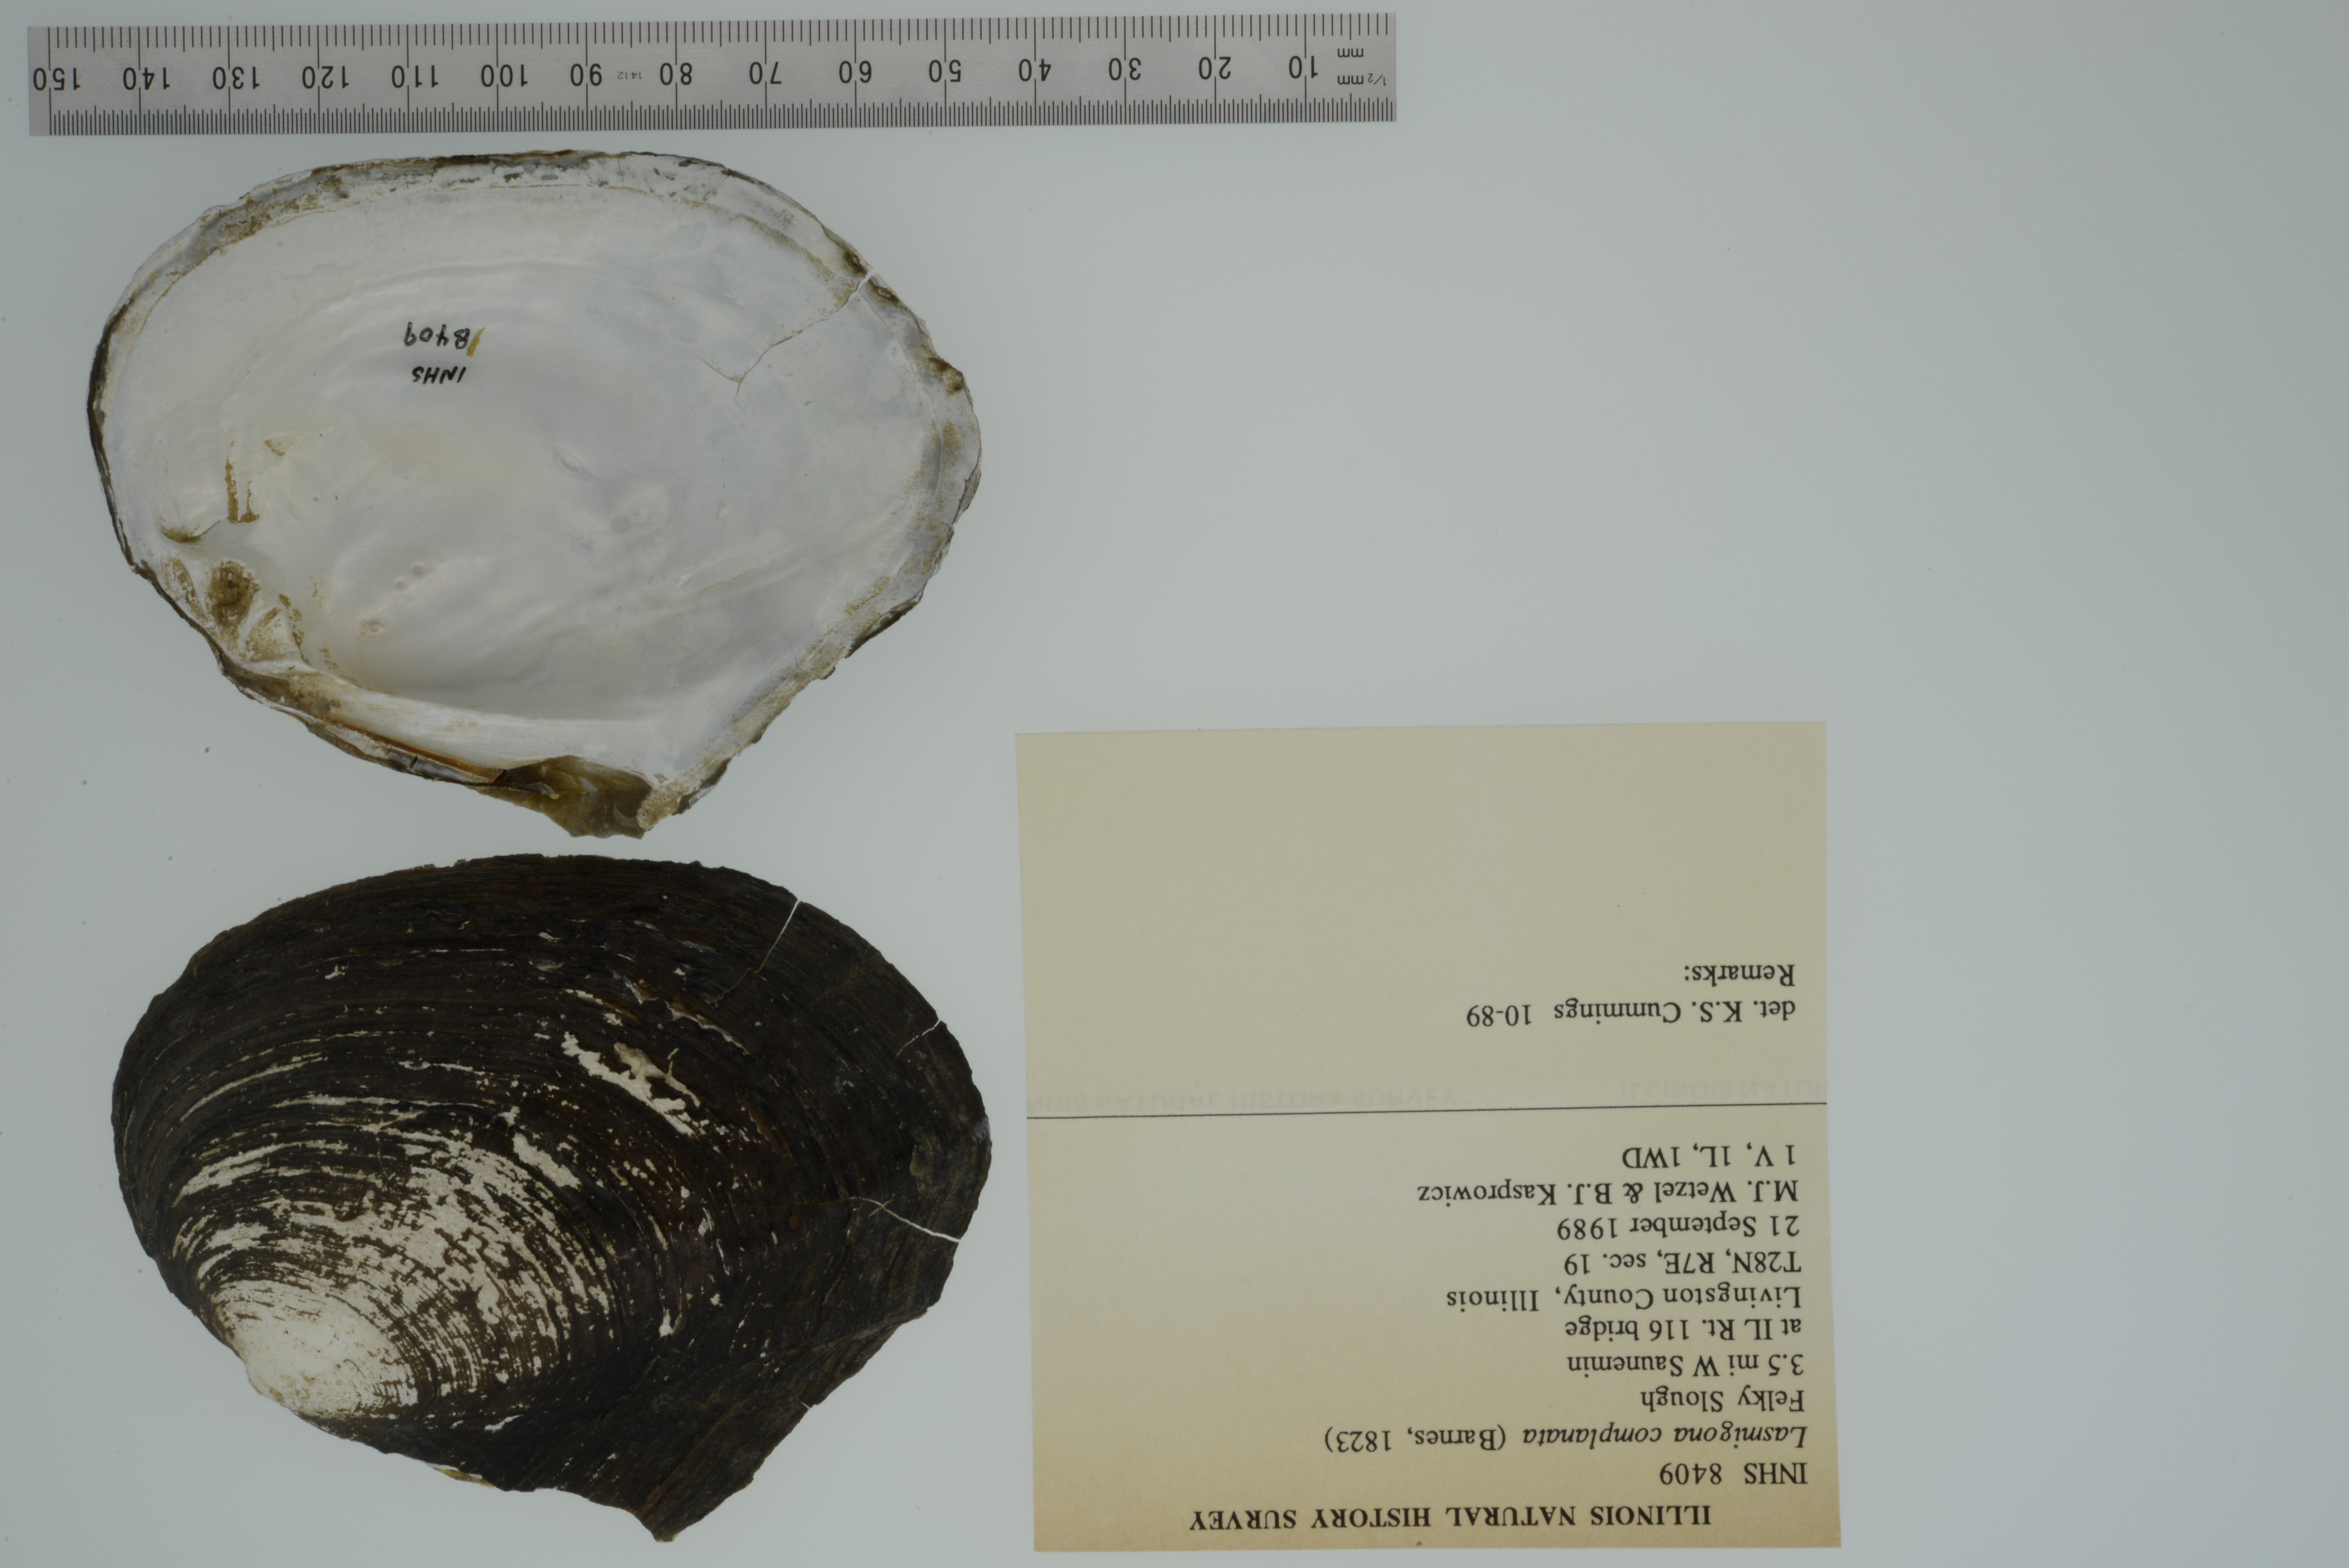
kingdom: Animalia
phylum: Mollusca
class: Bivalvia
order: Unionida
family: Unionidae
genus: Lasmigona
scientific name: Lasmigona complanata
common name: White heelsplitter
